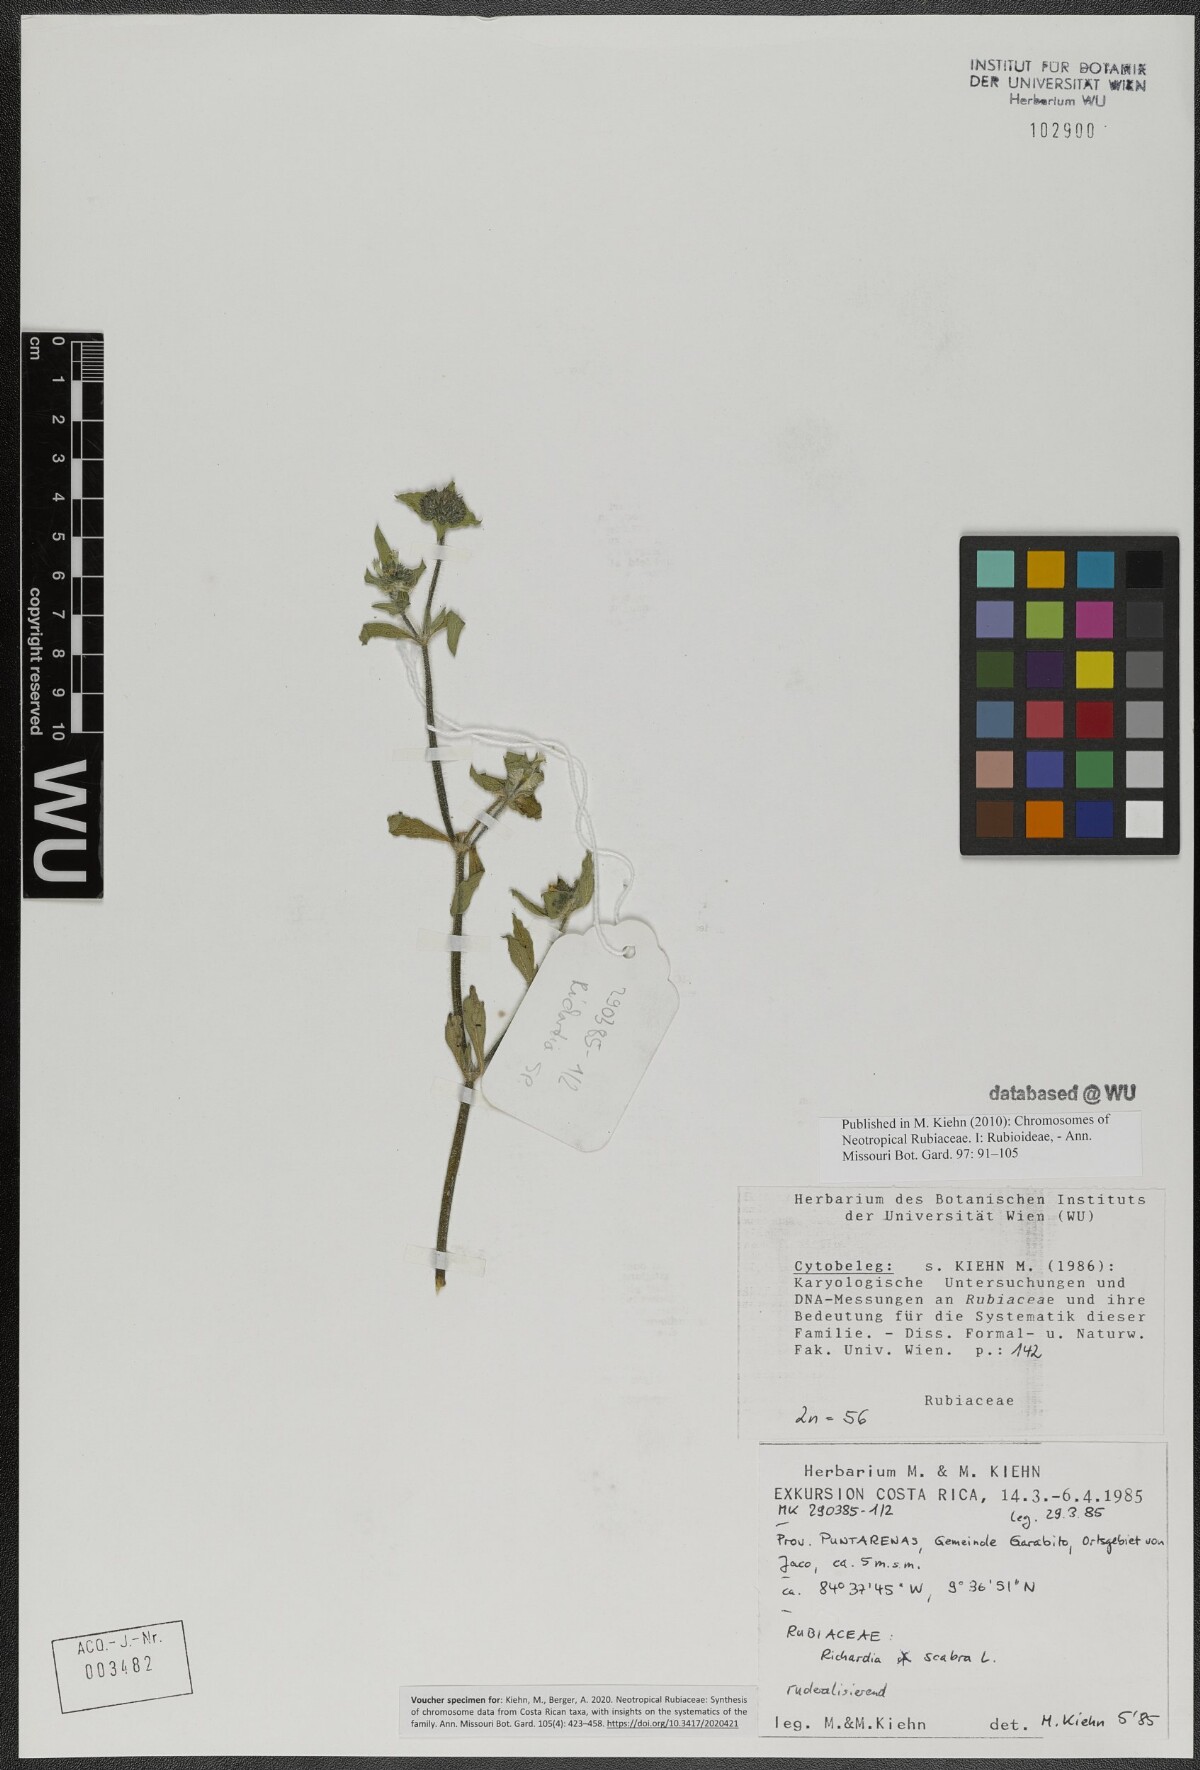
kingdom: Plantae
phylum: Tracheophyta
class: Magnoliopsida
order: Gentianales
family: Rubiaceae
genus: Richardia
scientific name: Richardia scabra
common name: Rough mexican clover
